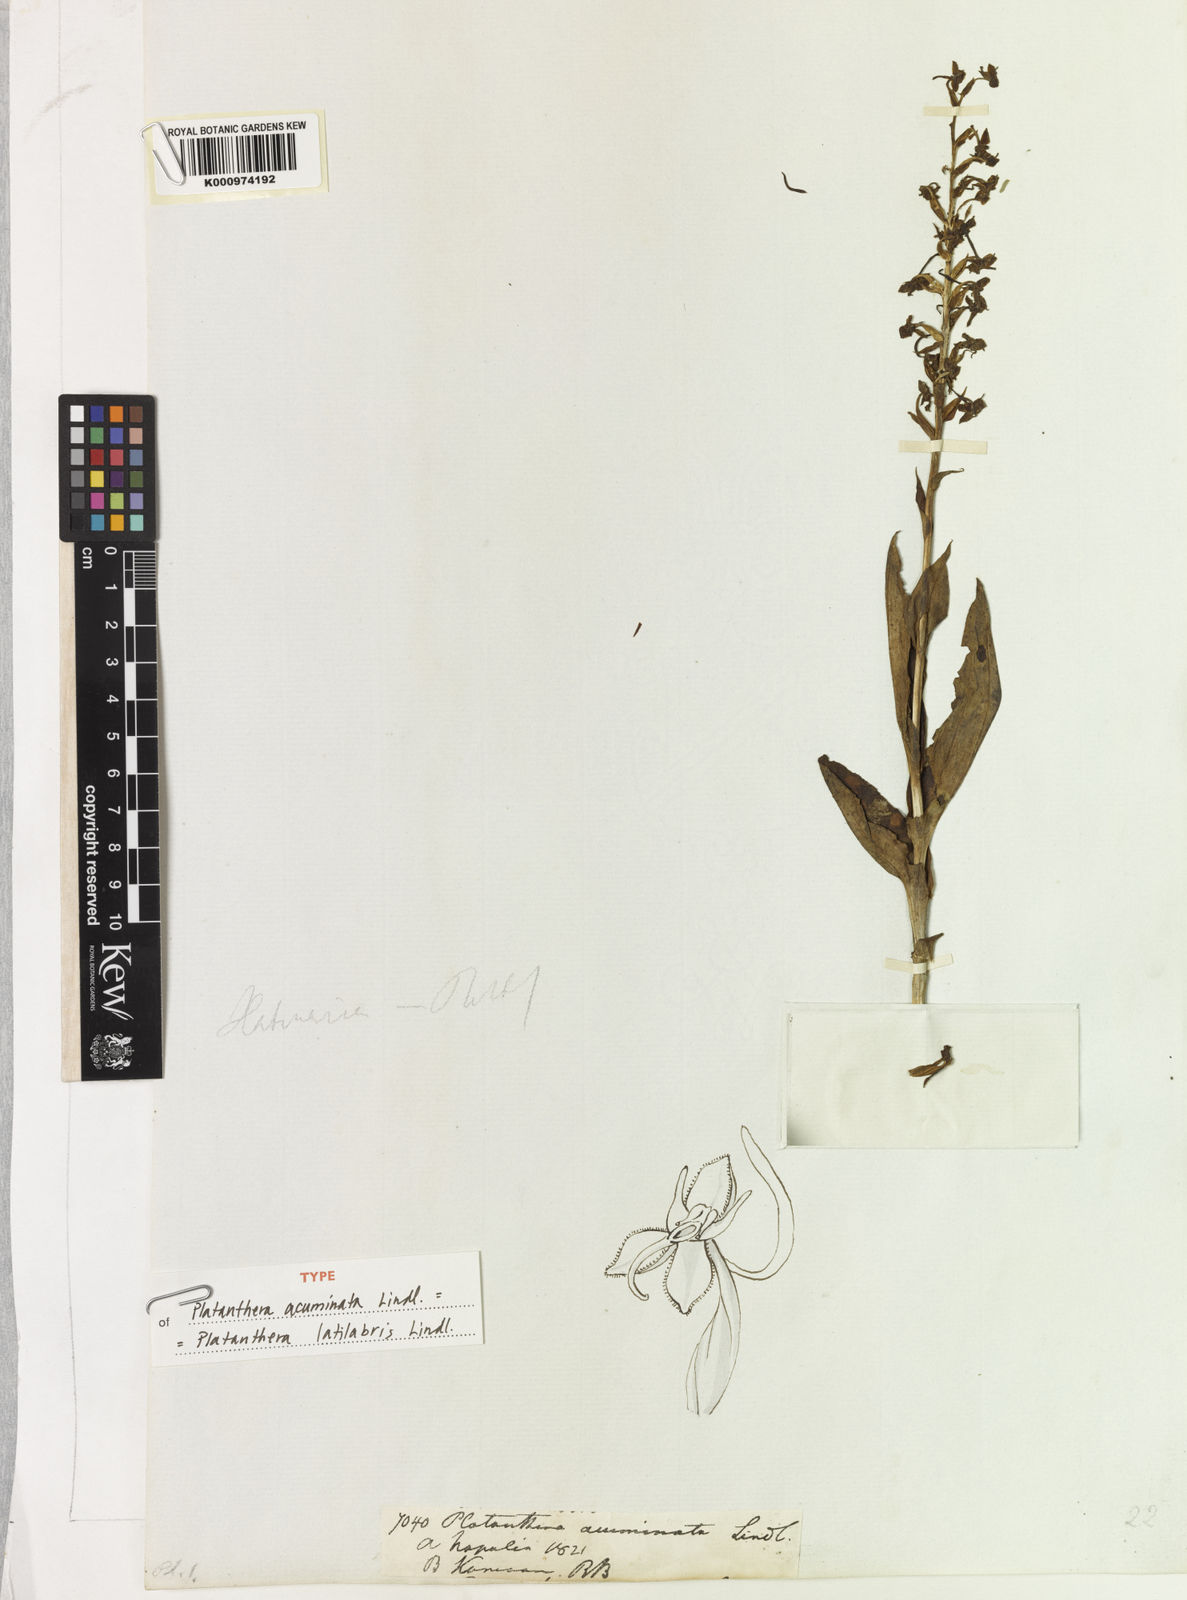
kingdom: Plantae
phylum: Tracheophyta
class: Liliopsida
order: Asparagales
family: Orchidaceae
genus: Herminium
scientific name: Herminium latilabre
